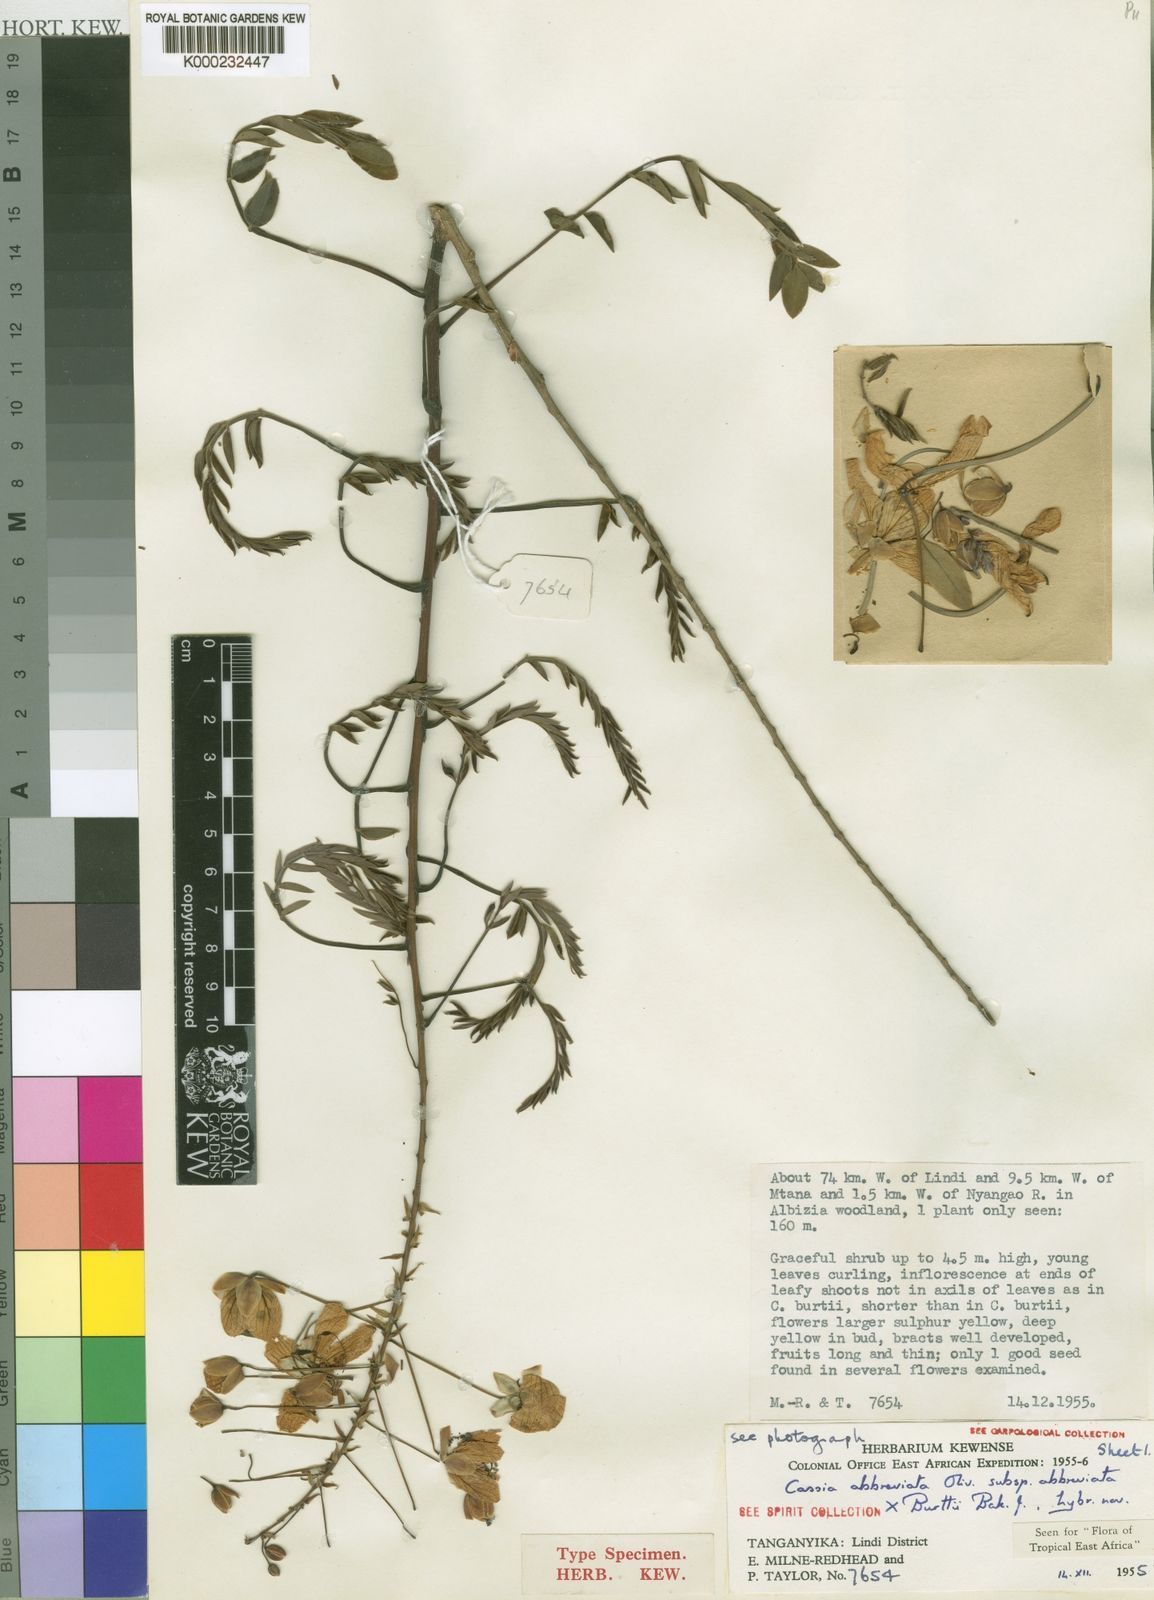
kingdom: Plantae
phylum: Tracheophyta
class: Magnoliopsida
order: Fabales
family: Fabaceae
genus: Cassia
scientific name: Cassia
